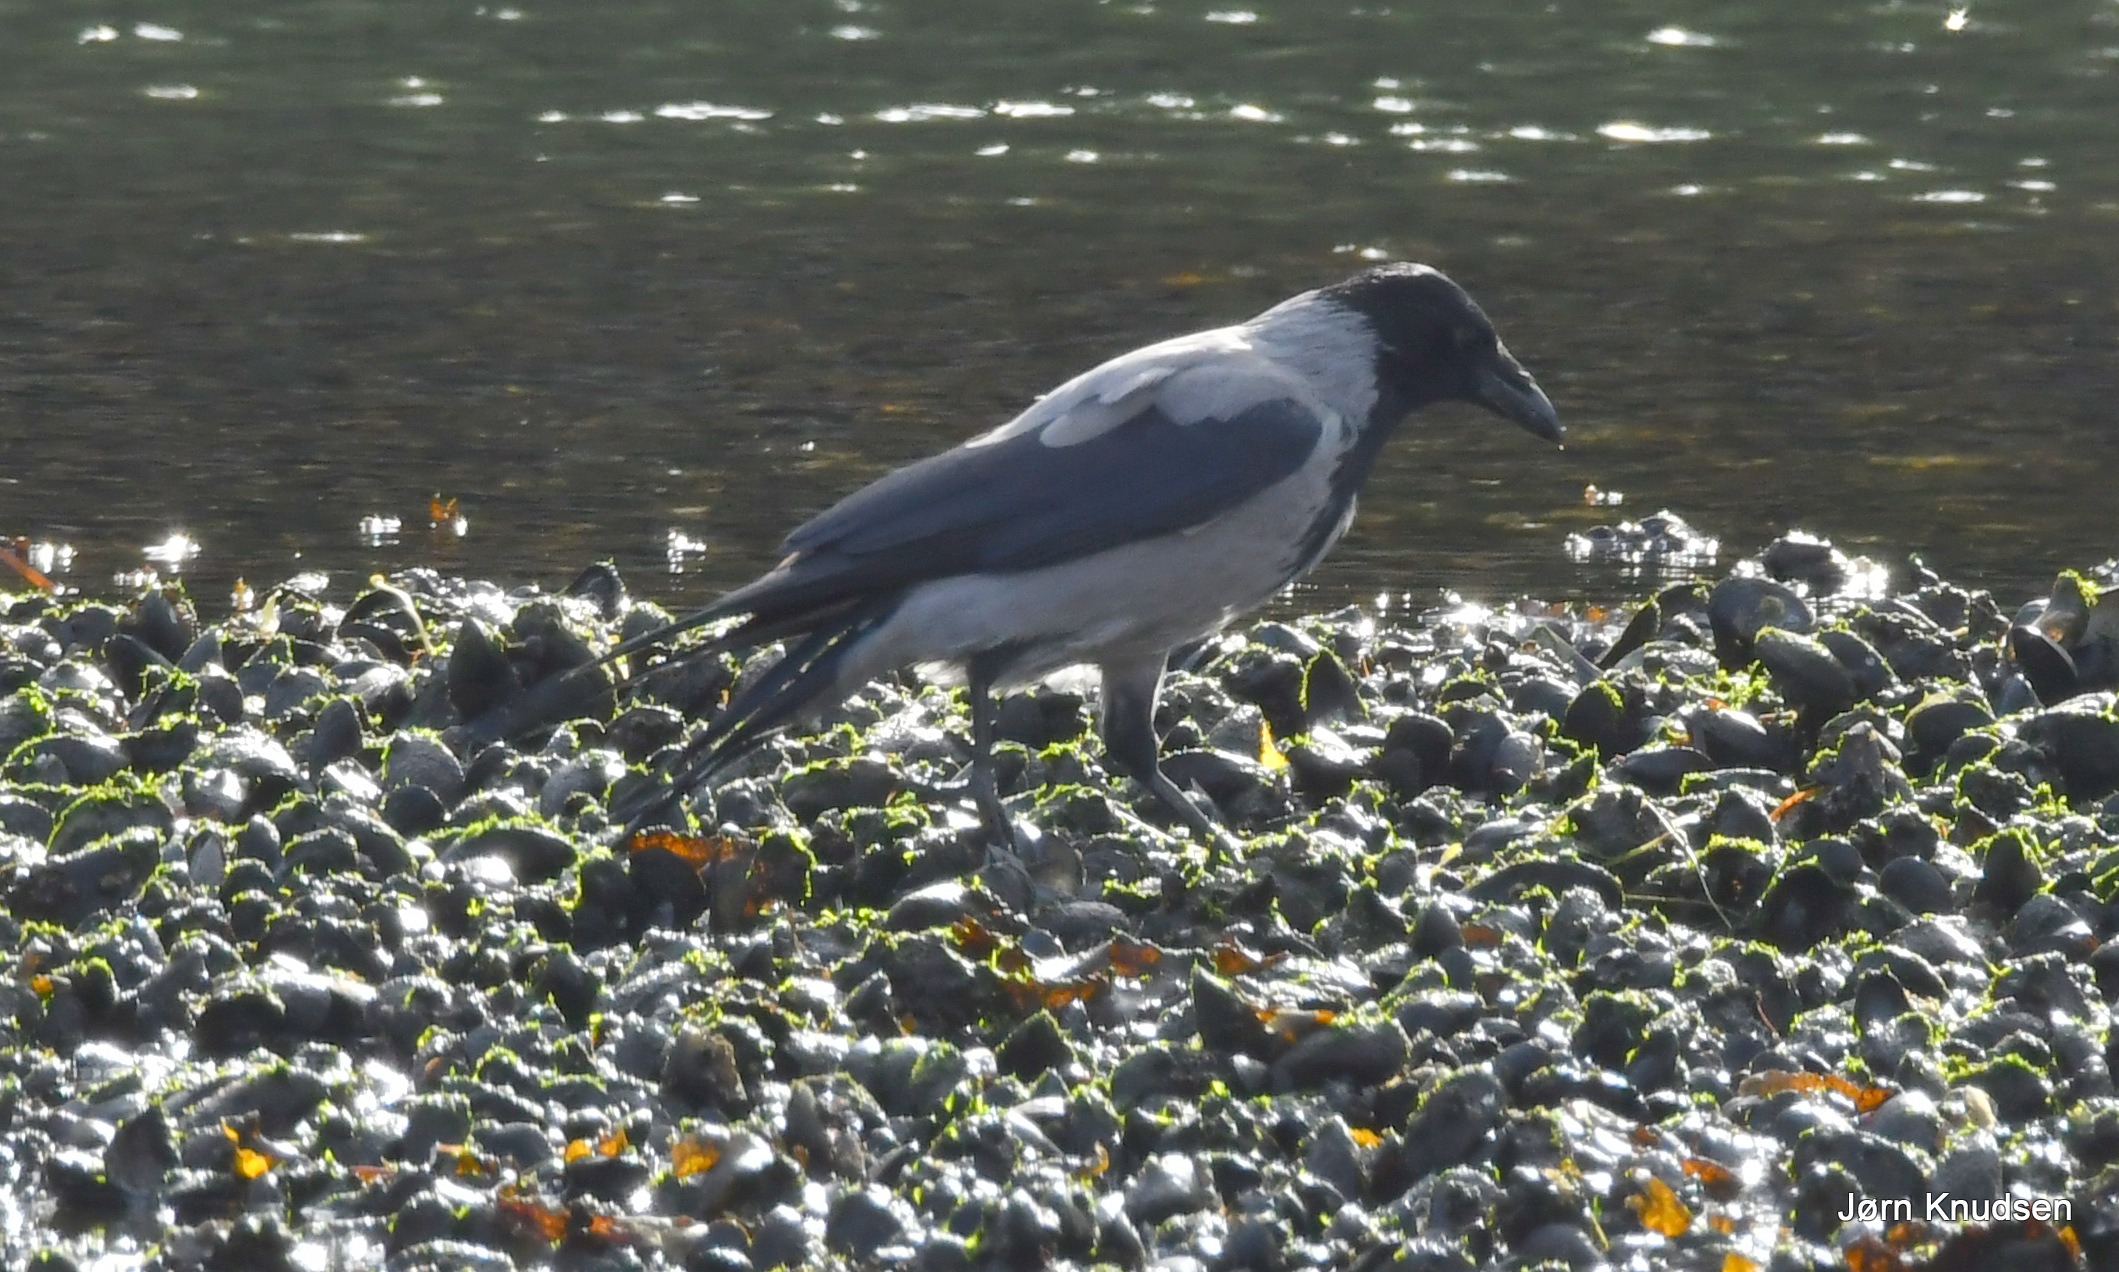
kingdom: Animalia
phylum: Chordata
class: Aves
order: Passeriformes
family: Corvidae
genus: Corvus
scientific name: Corvus cornix
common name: Gråkrage
